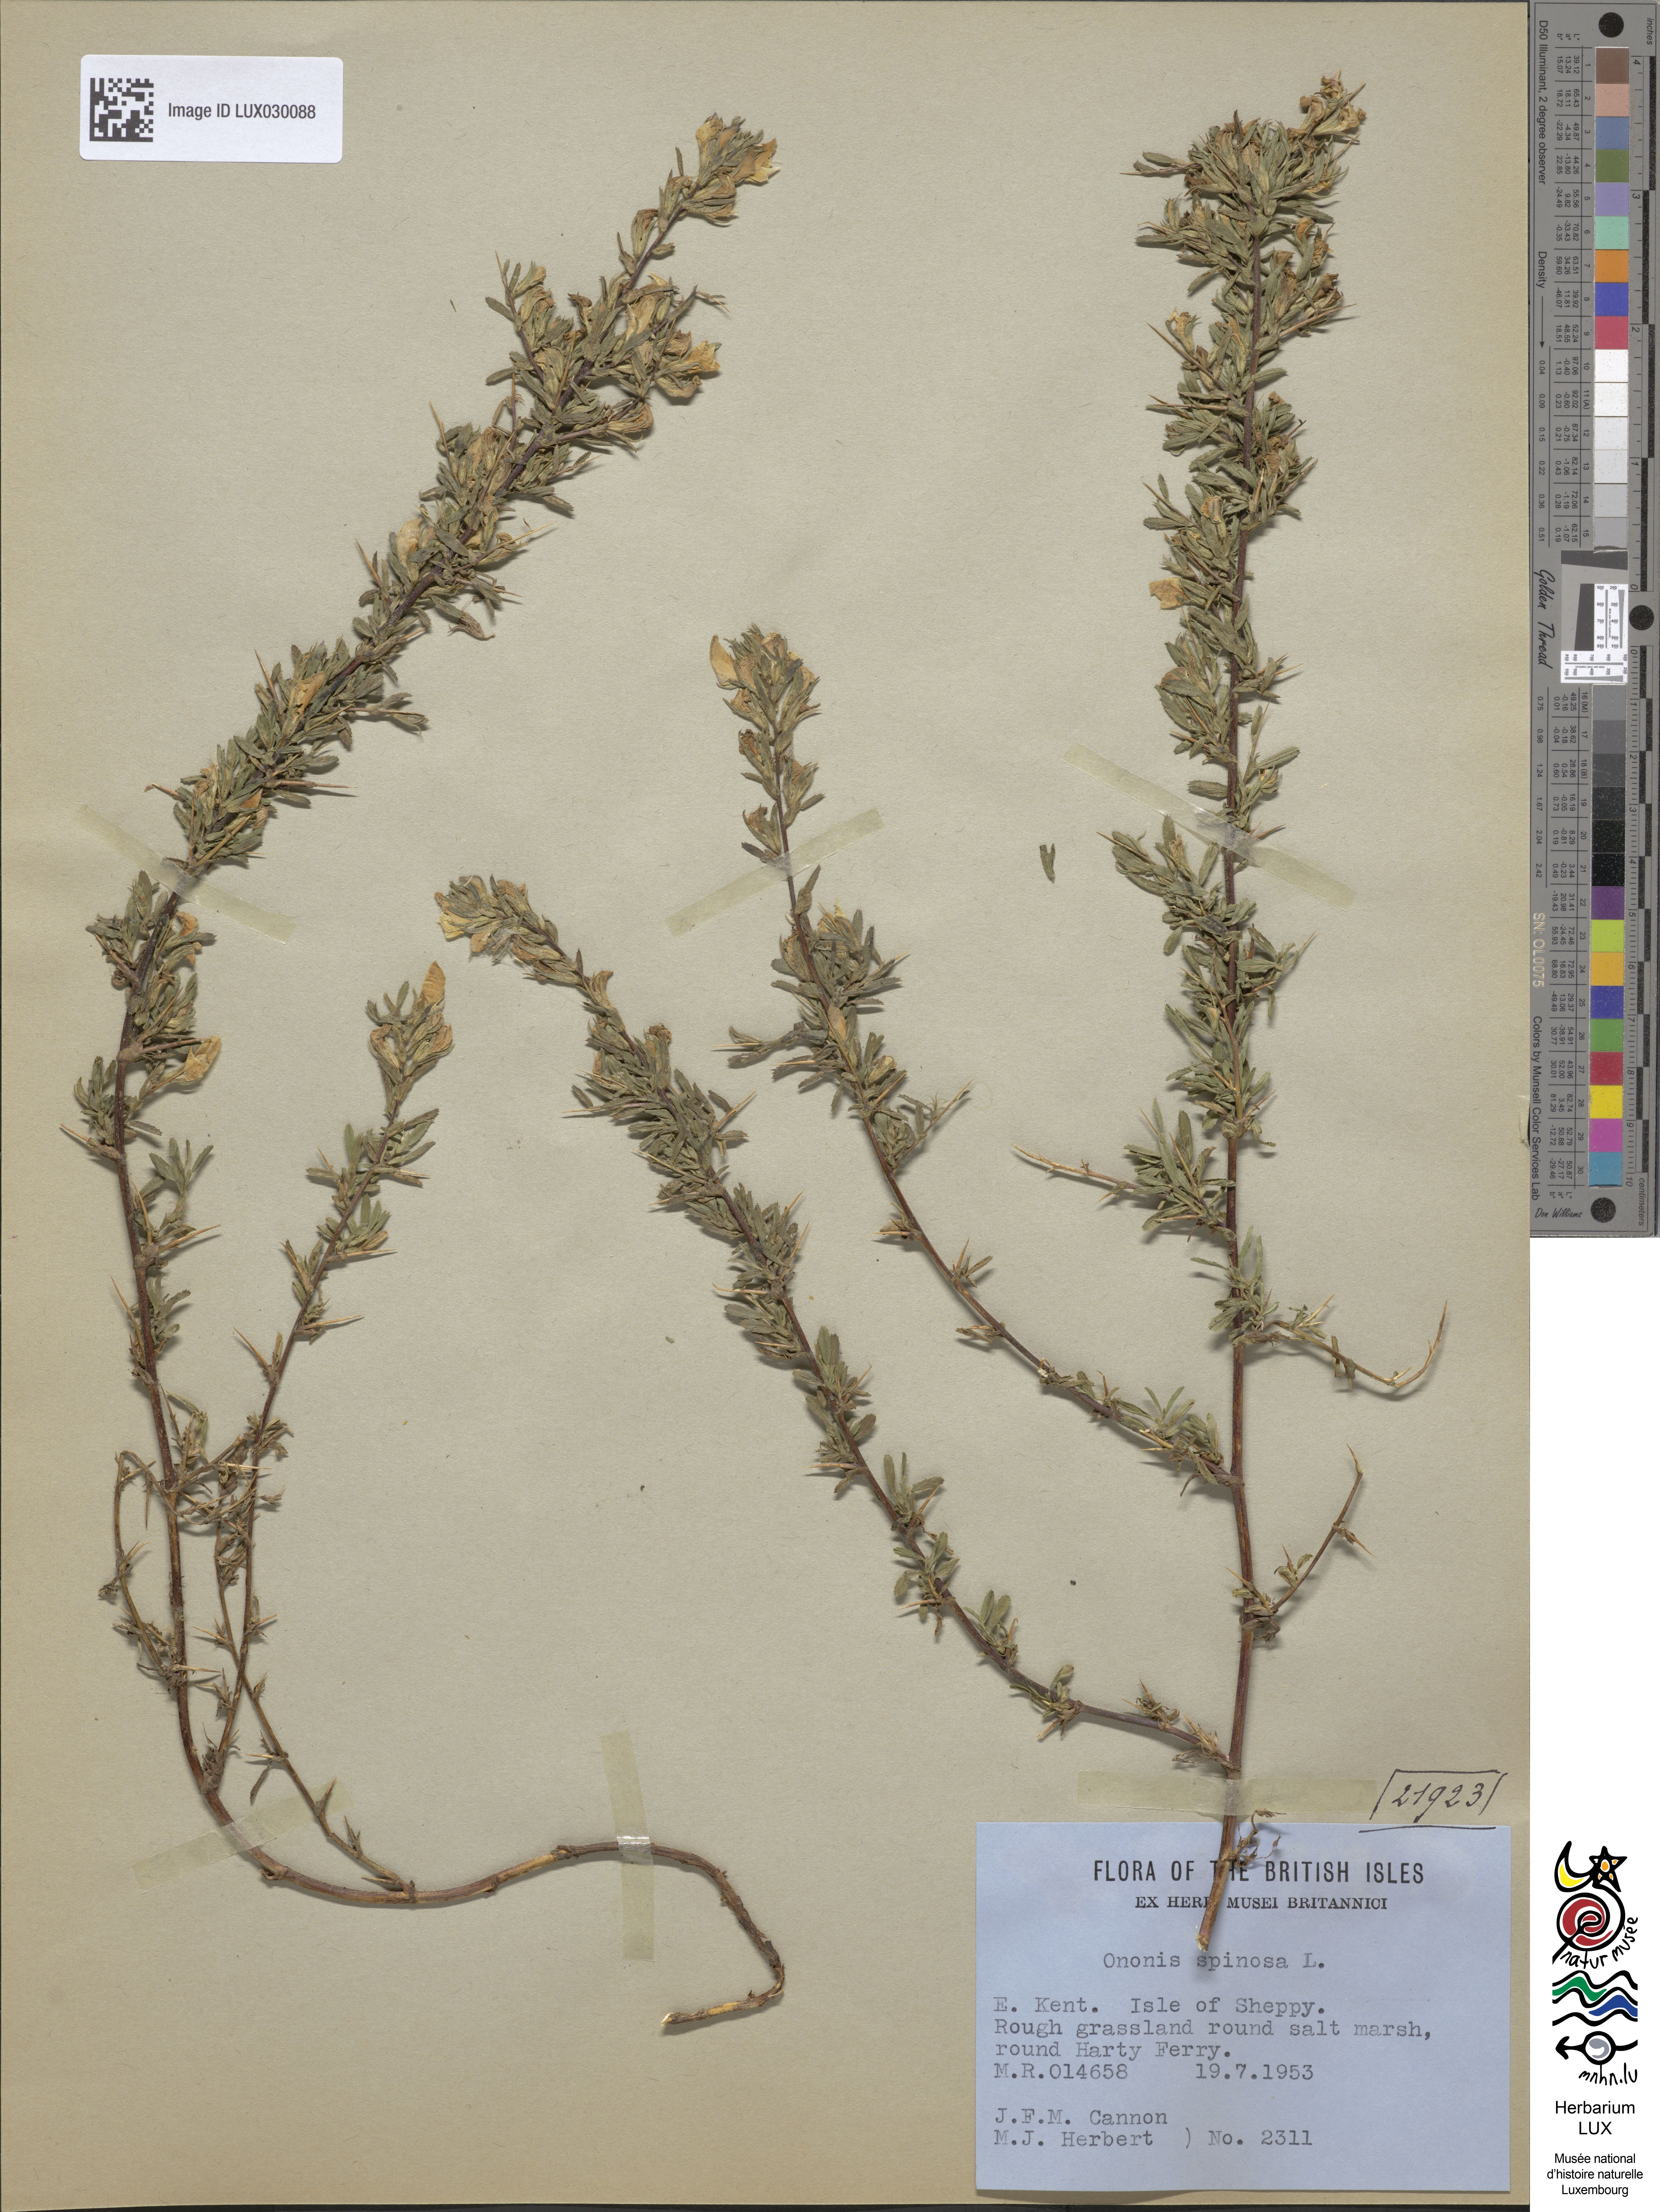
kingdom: Plantae
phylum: Tracheophyta
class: Magnoliopsida
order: Fabales
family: Fabaceae
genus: Ononis
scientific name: Ononis spinosa
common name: Spiny restharrow
